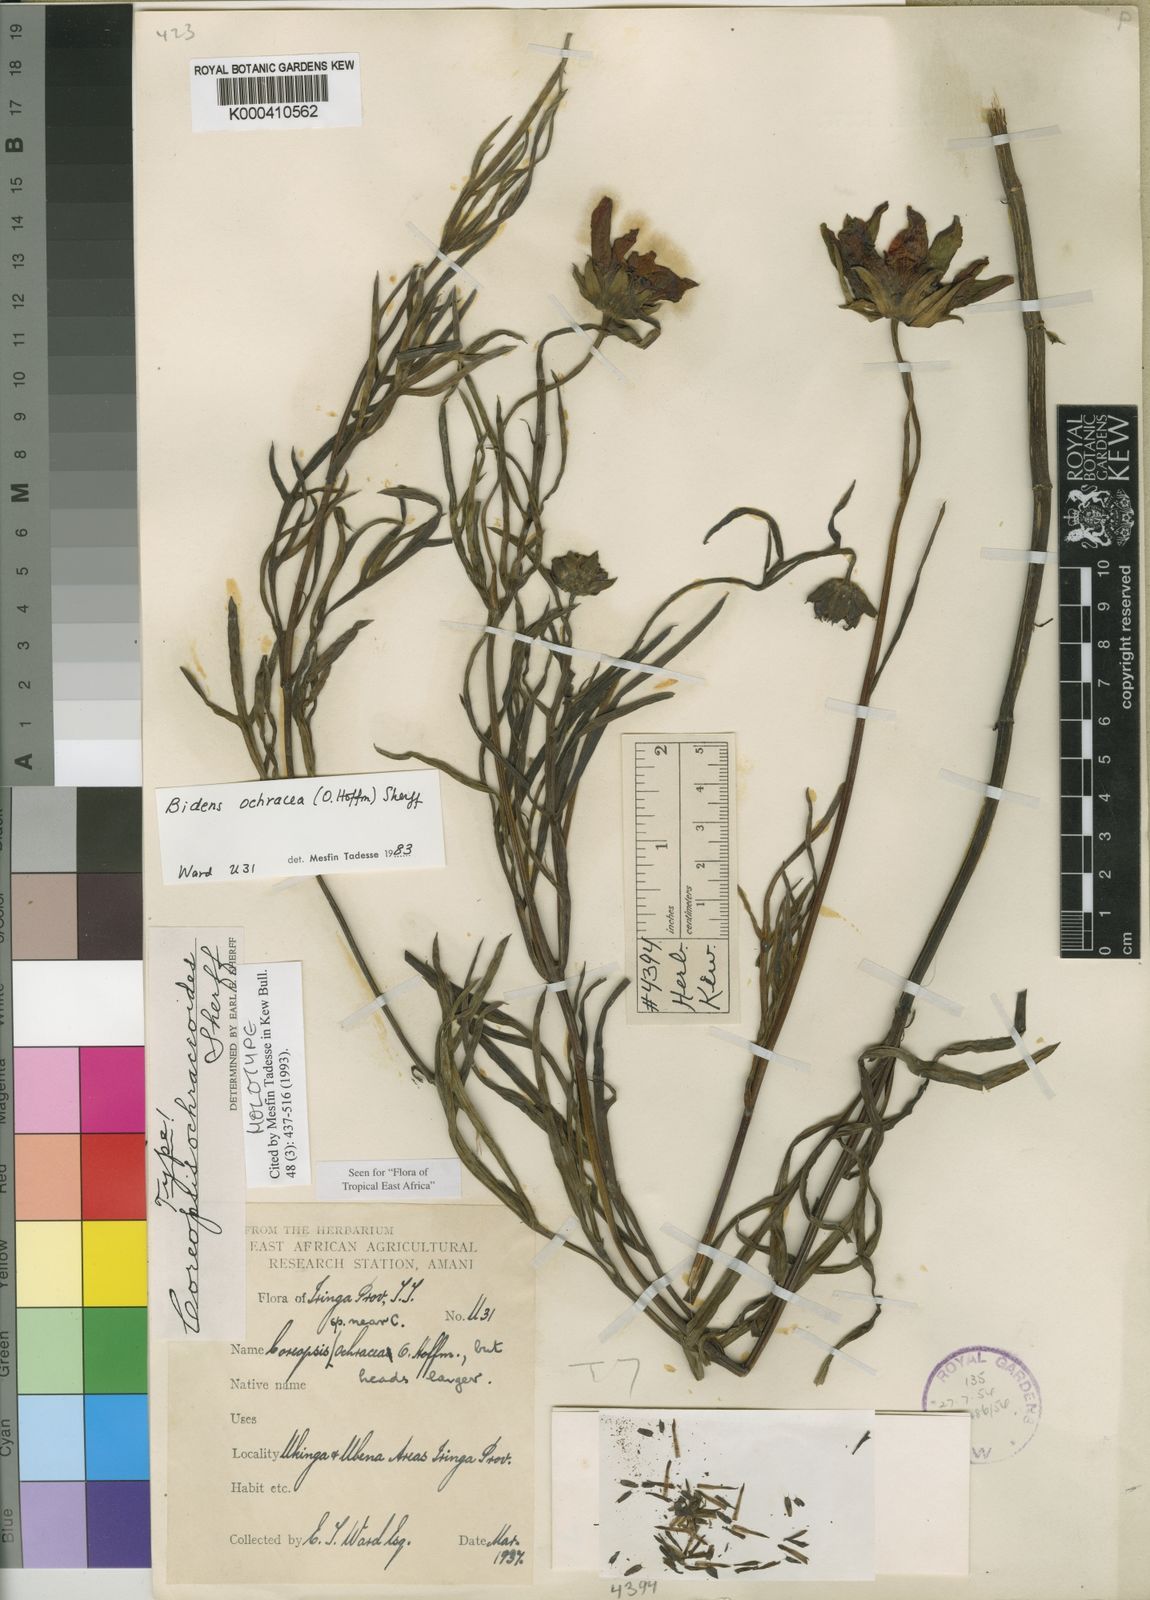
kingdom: Plantae
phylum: Tracheophyta
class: Magnoliopsida
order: Asterales
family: Asteraceae
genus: Bidens
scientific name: Bidens ochracea
